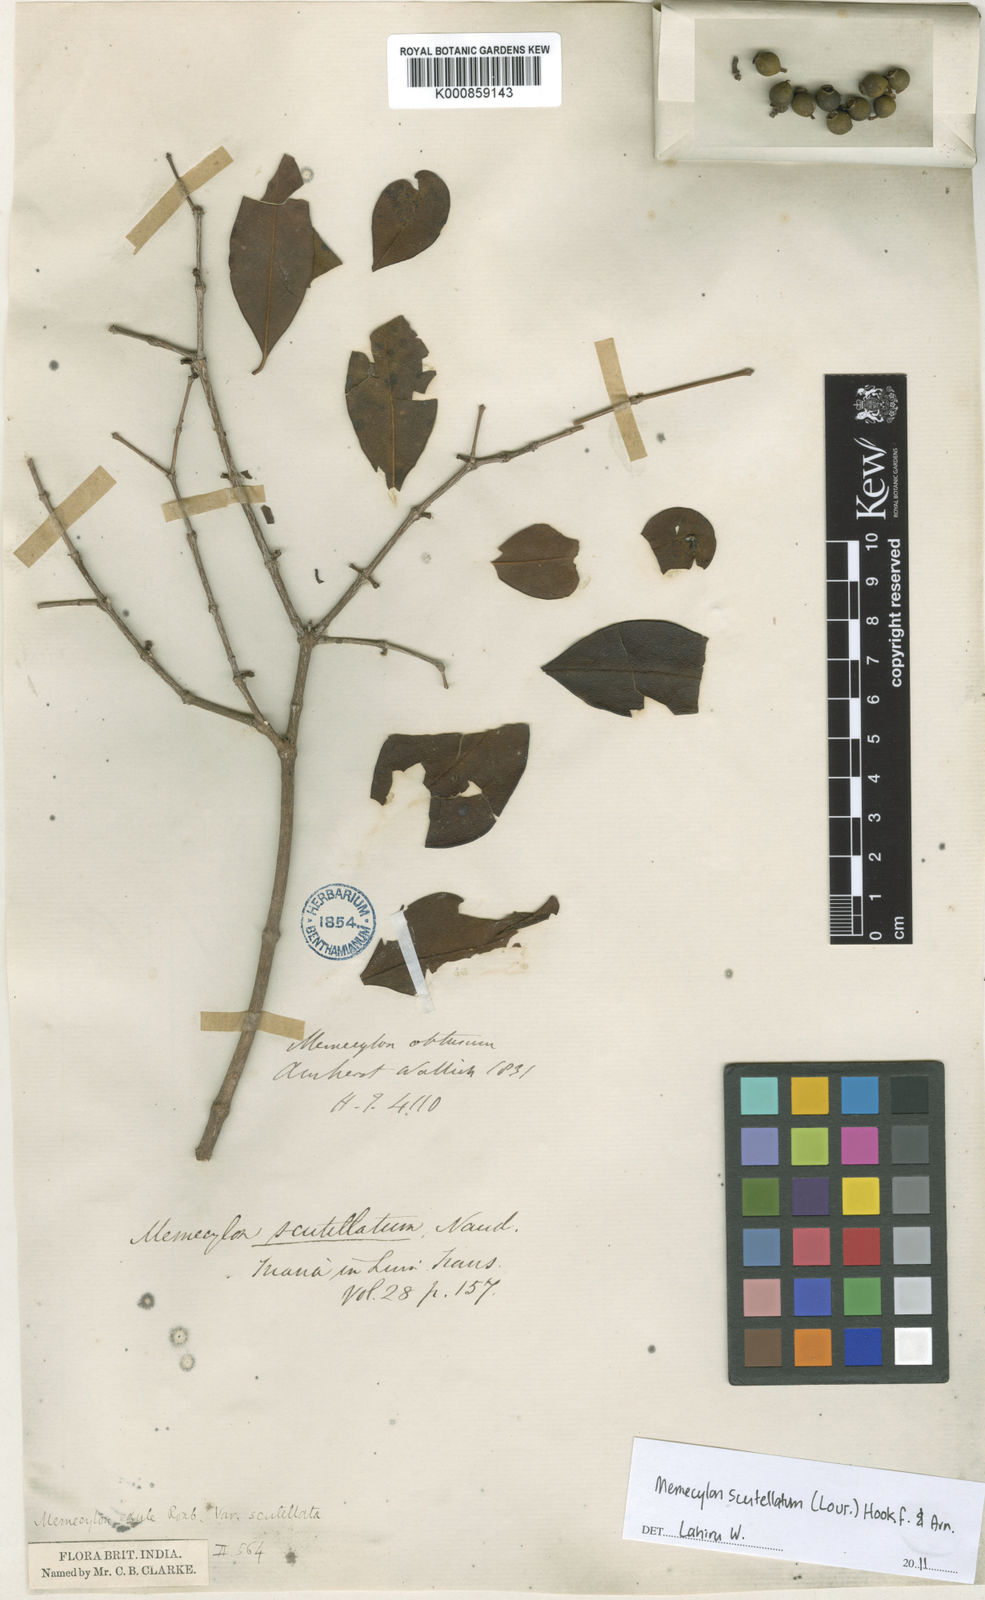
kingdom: Plantae
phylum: Tracheophyta
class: Magnoliopsida
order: Myrtales
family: Melastomataceae
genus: Memecylon
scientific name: Memecylon scutellatum
